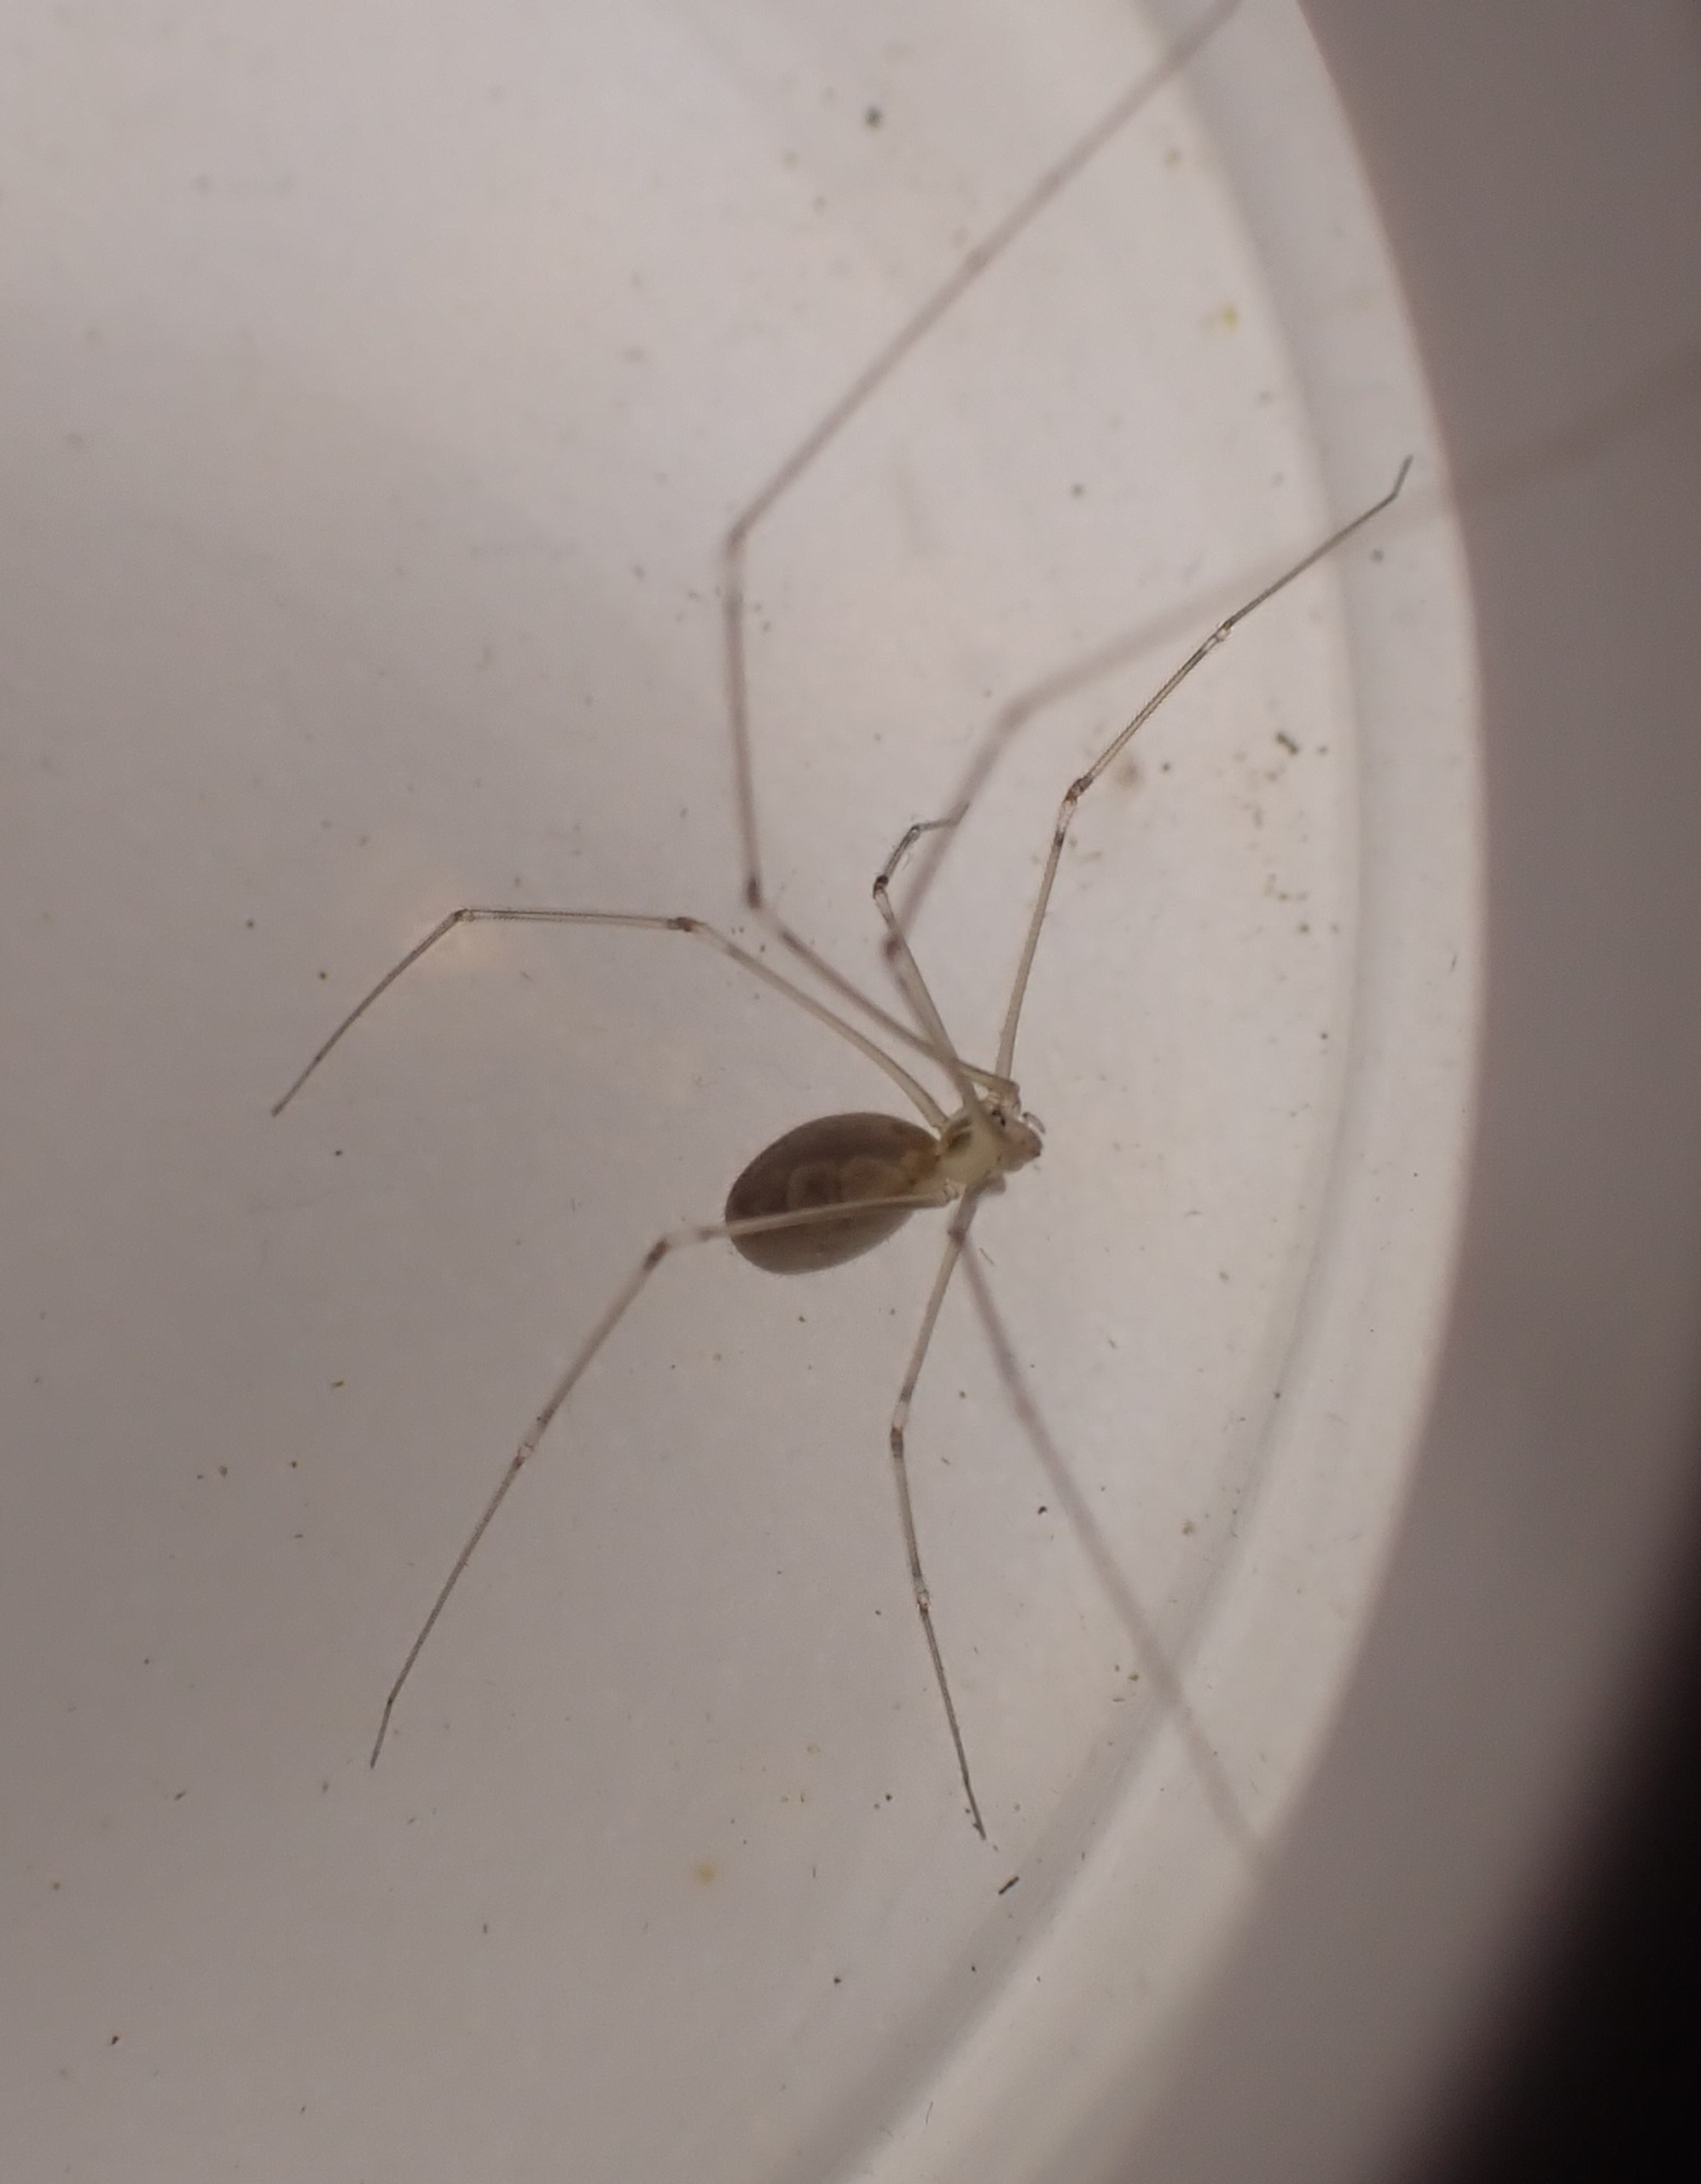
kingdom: Animalia
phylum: Arthropoda
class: Arachnida
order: Araneae
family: Pholcidae
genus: Pholcus
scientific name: Pholcus phalangioides
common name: Mejeredderkop
